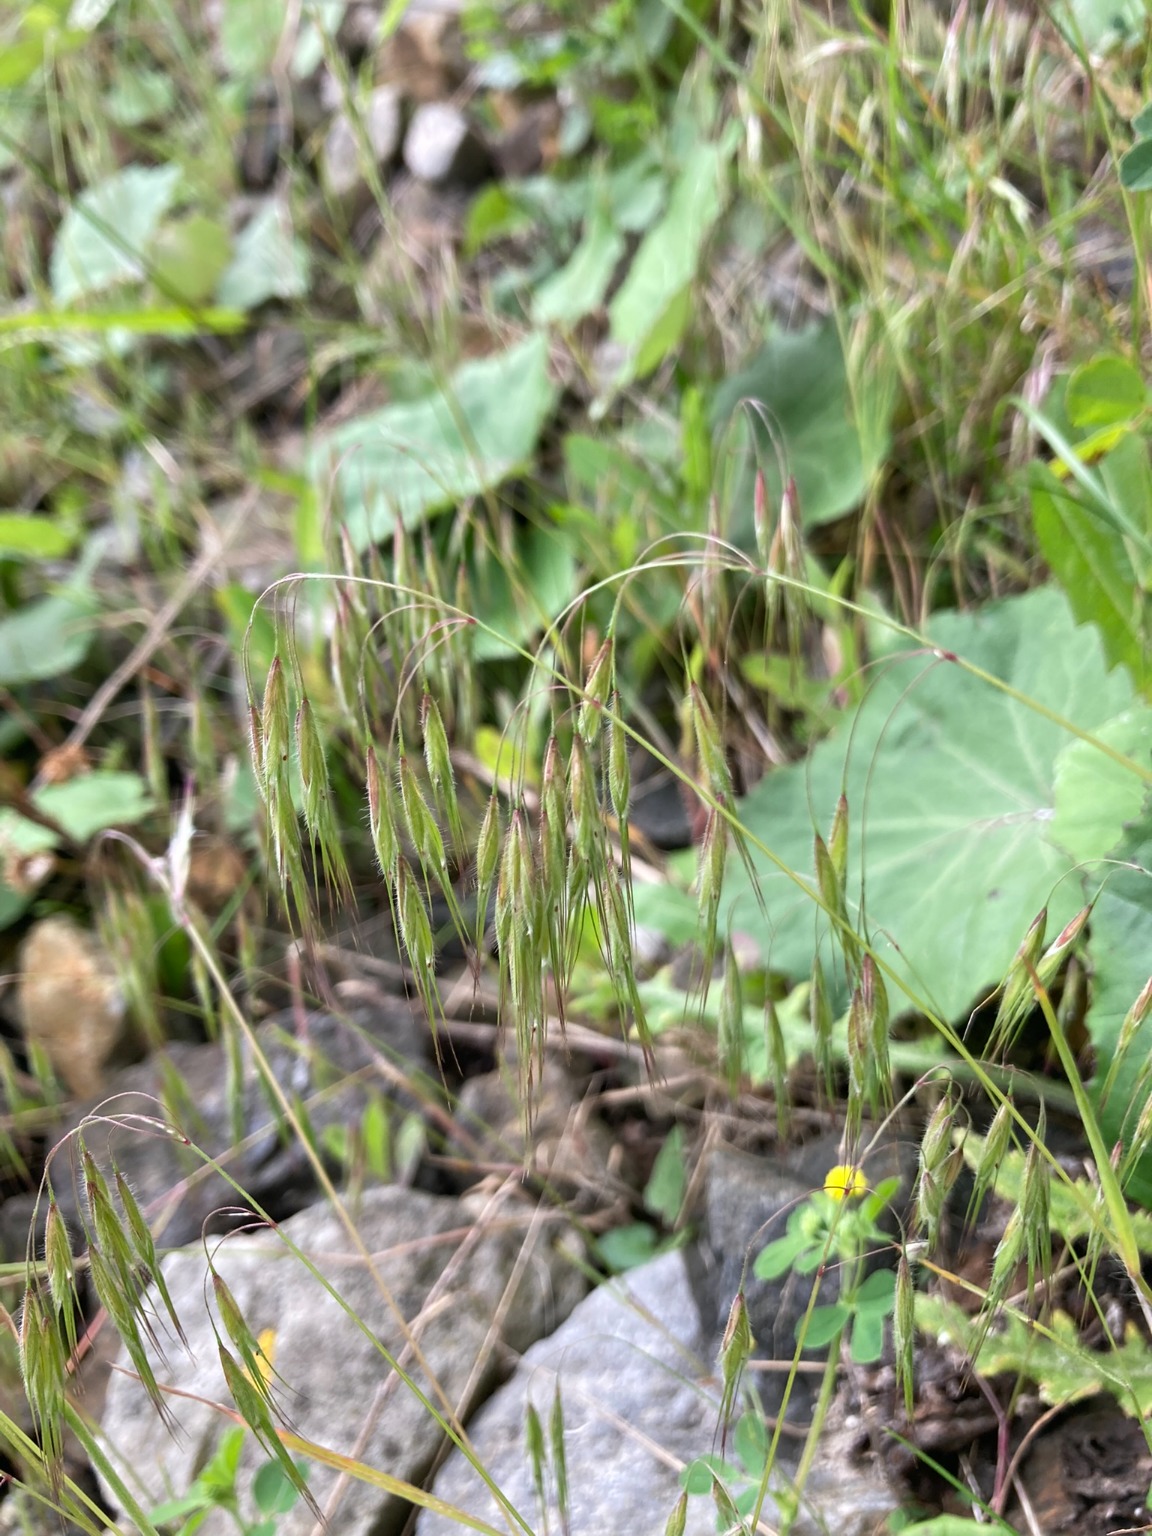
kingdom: Plantae
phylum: Tracheophyta
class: Liliopsida
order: Poales
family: Poaceae
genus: Bromus
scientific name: Bromus tectorum
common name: Tag-hejre
